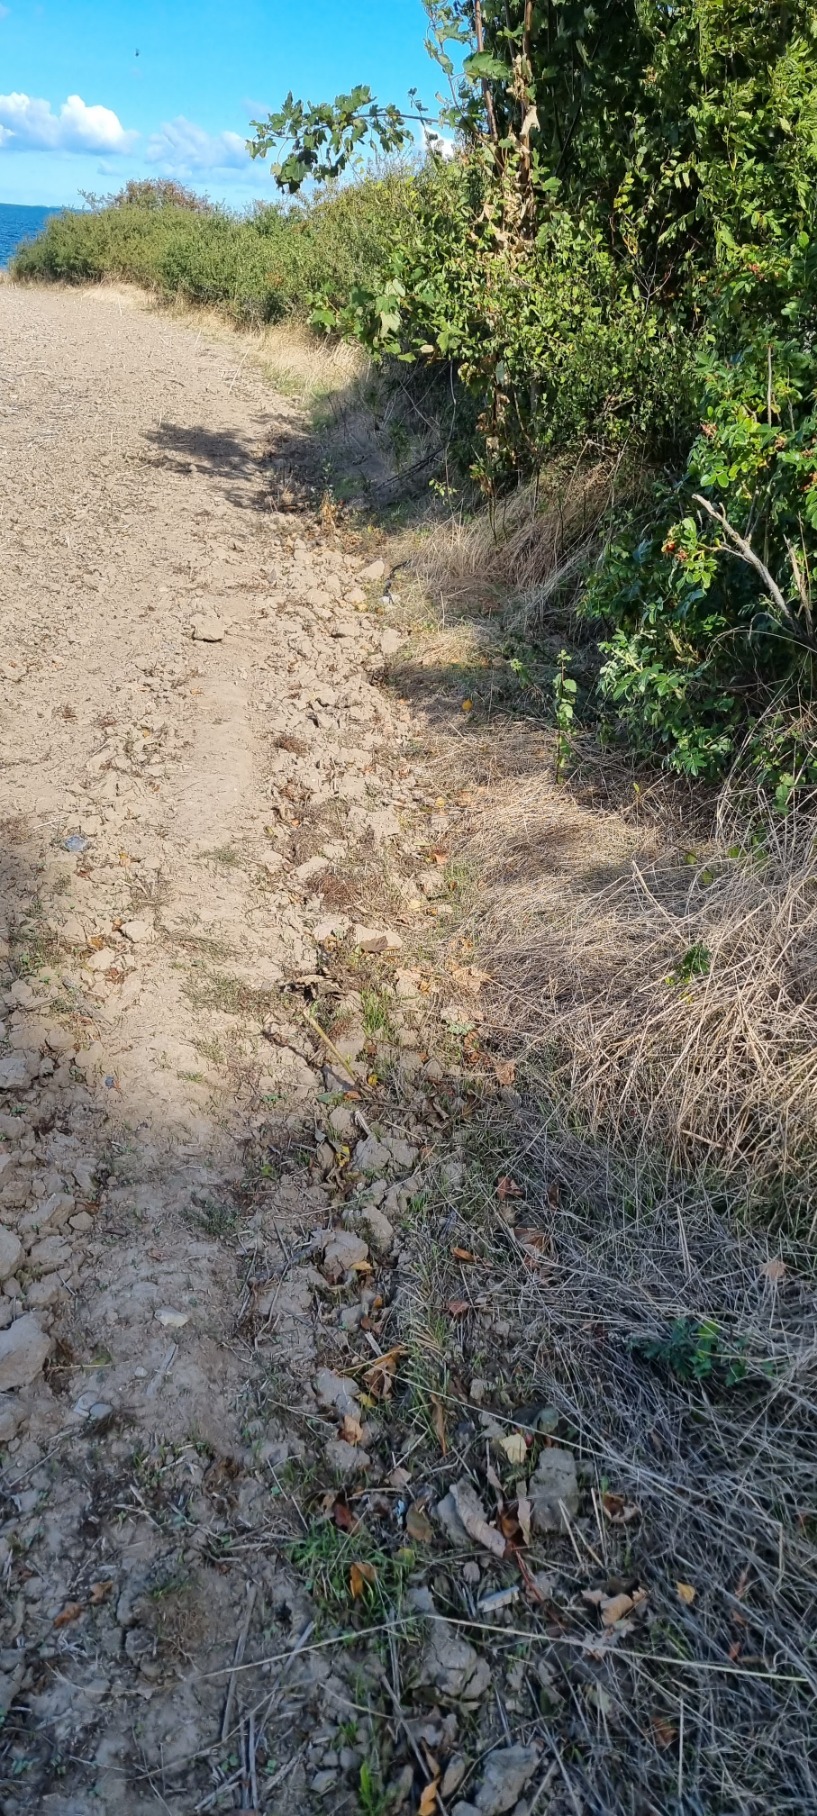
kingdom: Animalia
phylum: Chordata
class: Squamata
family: Colubridae
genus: Natrix
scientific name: Natrix natrix
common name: Snog
